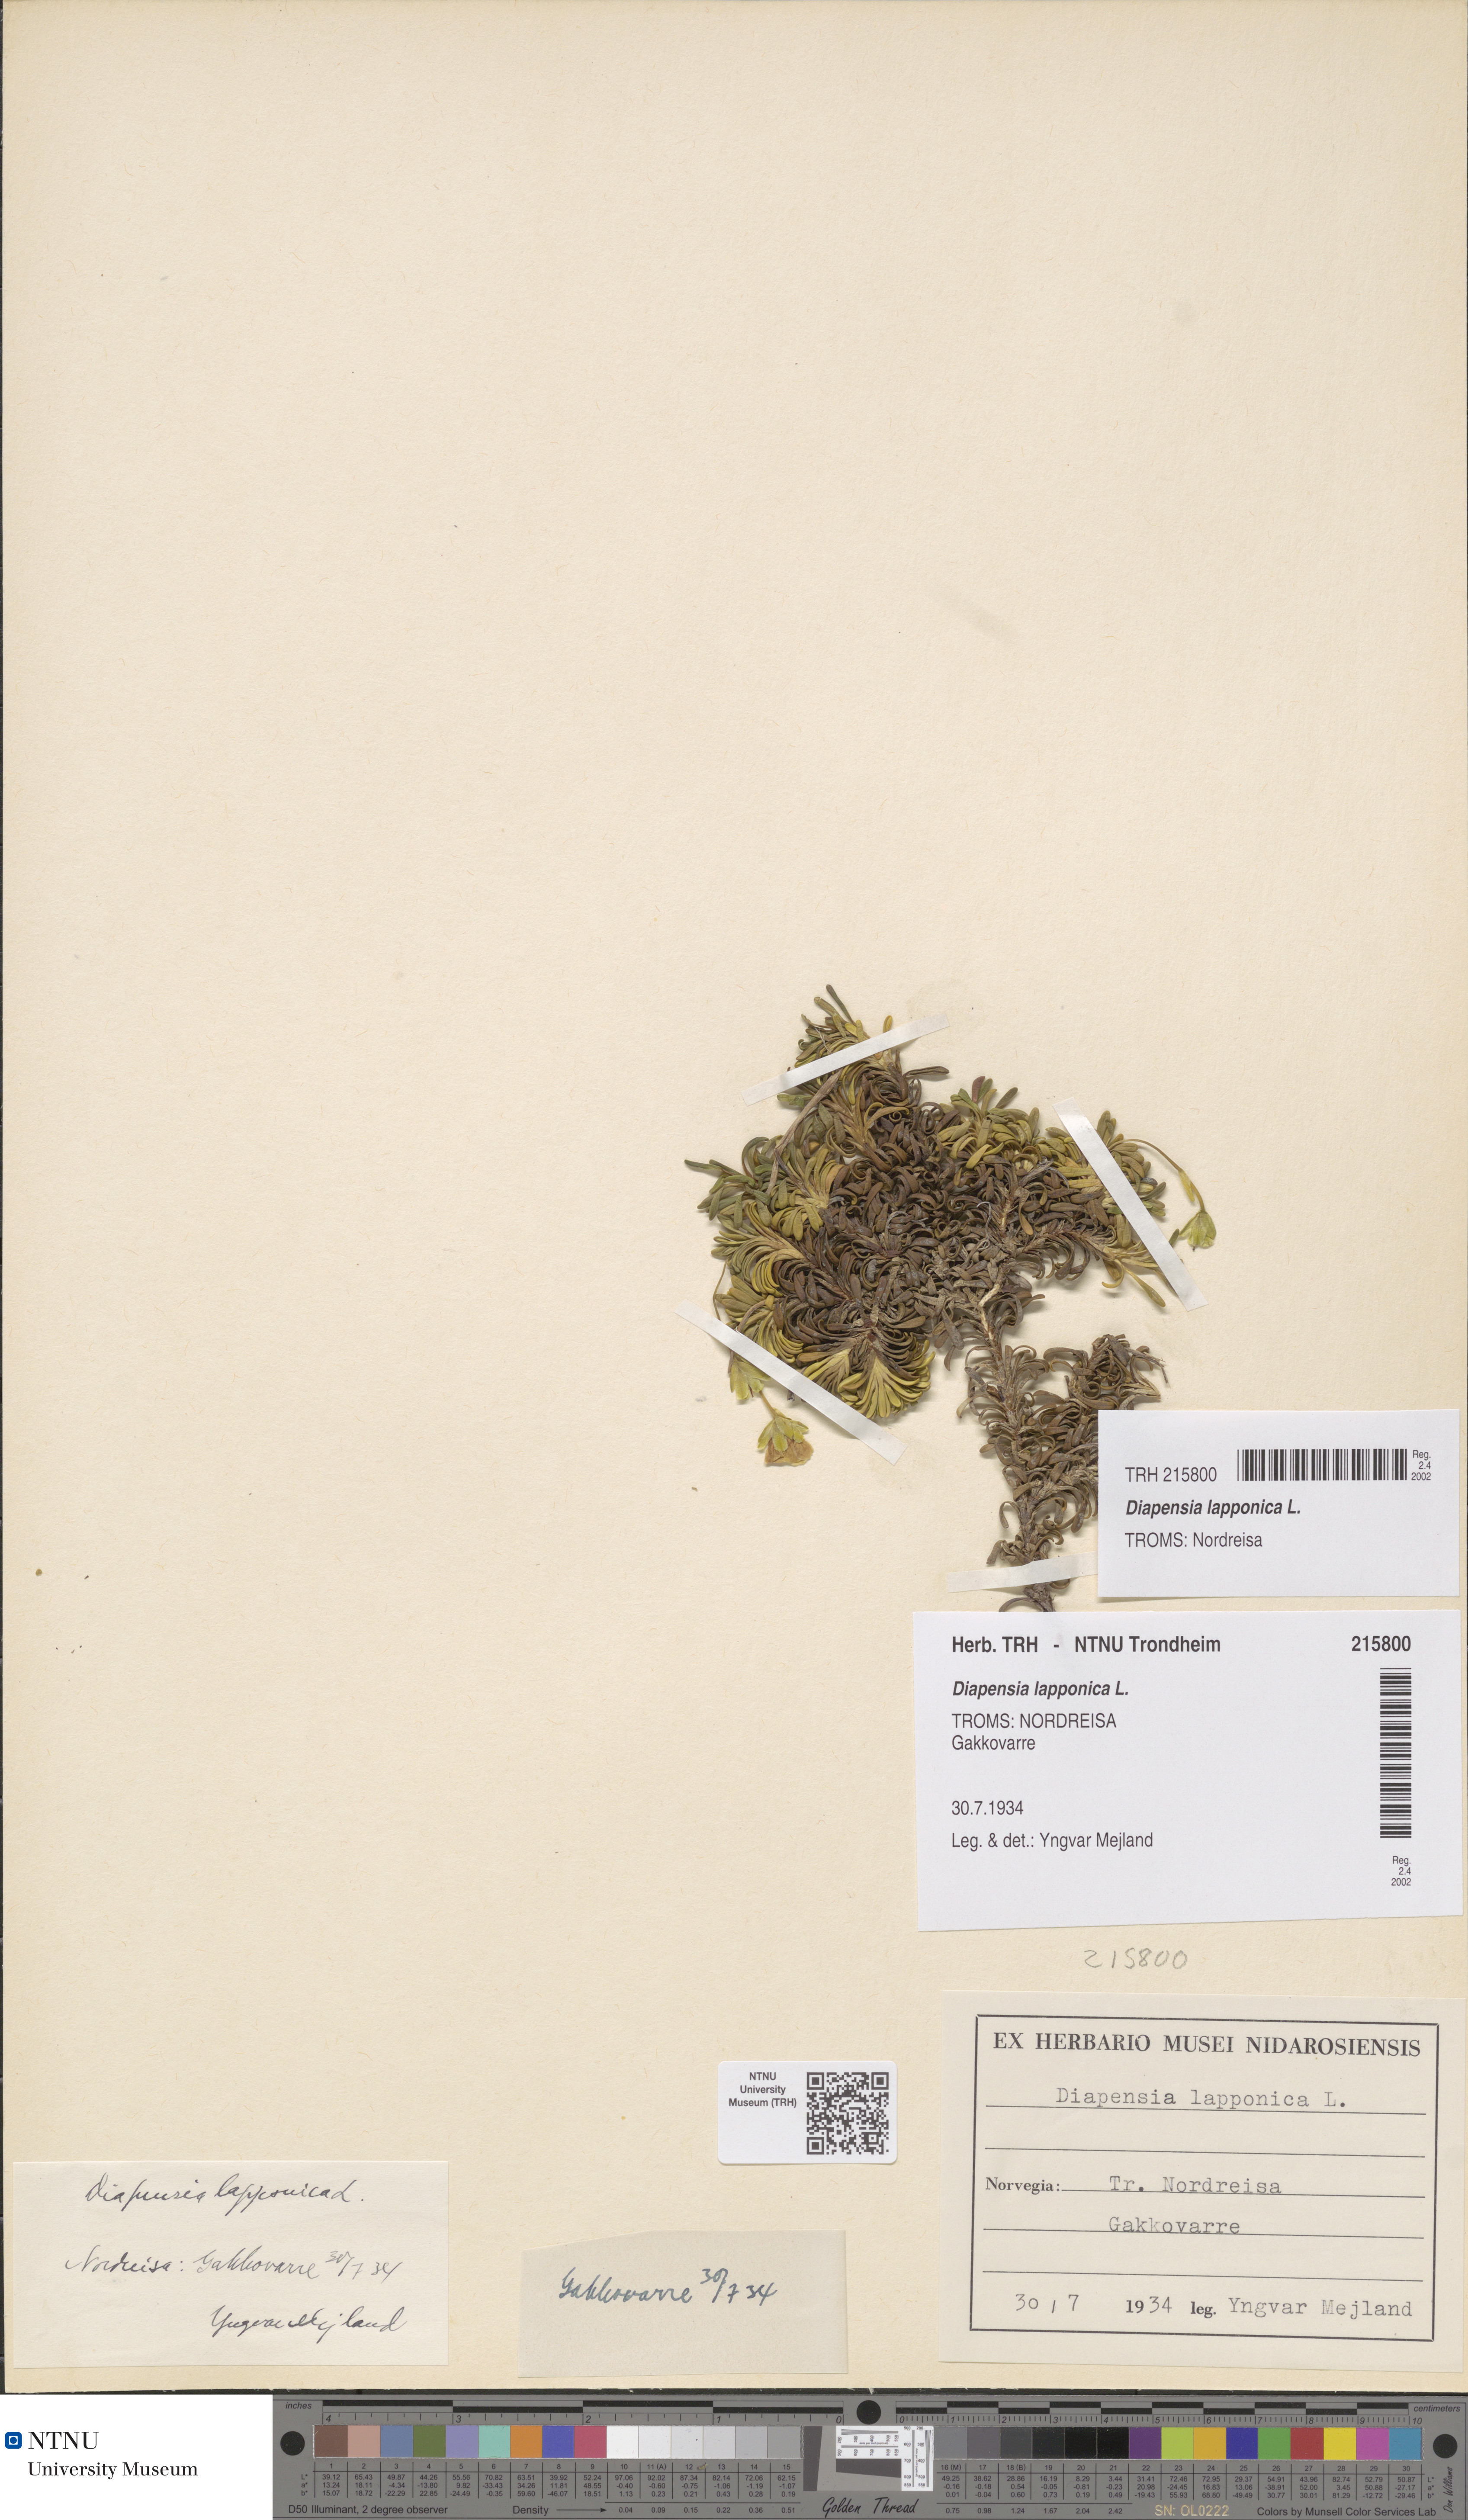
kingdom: Plantae
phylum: Tracheophyta
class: Magnoliopsida
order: Ericales
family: Diapensiaceae
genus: Diapensia
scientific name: Diapensia lapponica
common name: Diapensia
